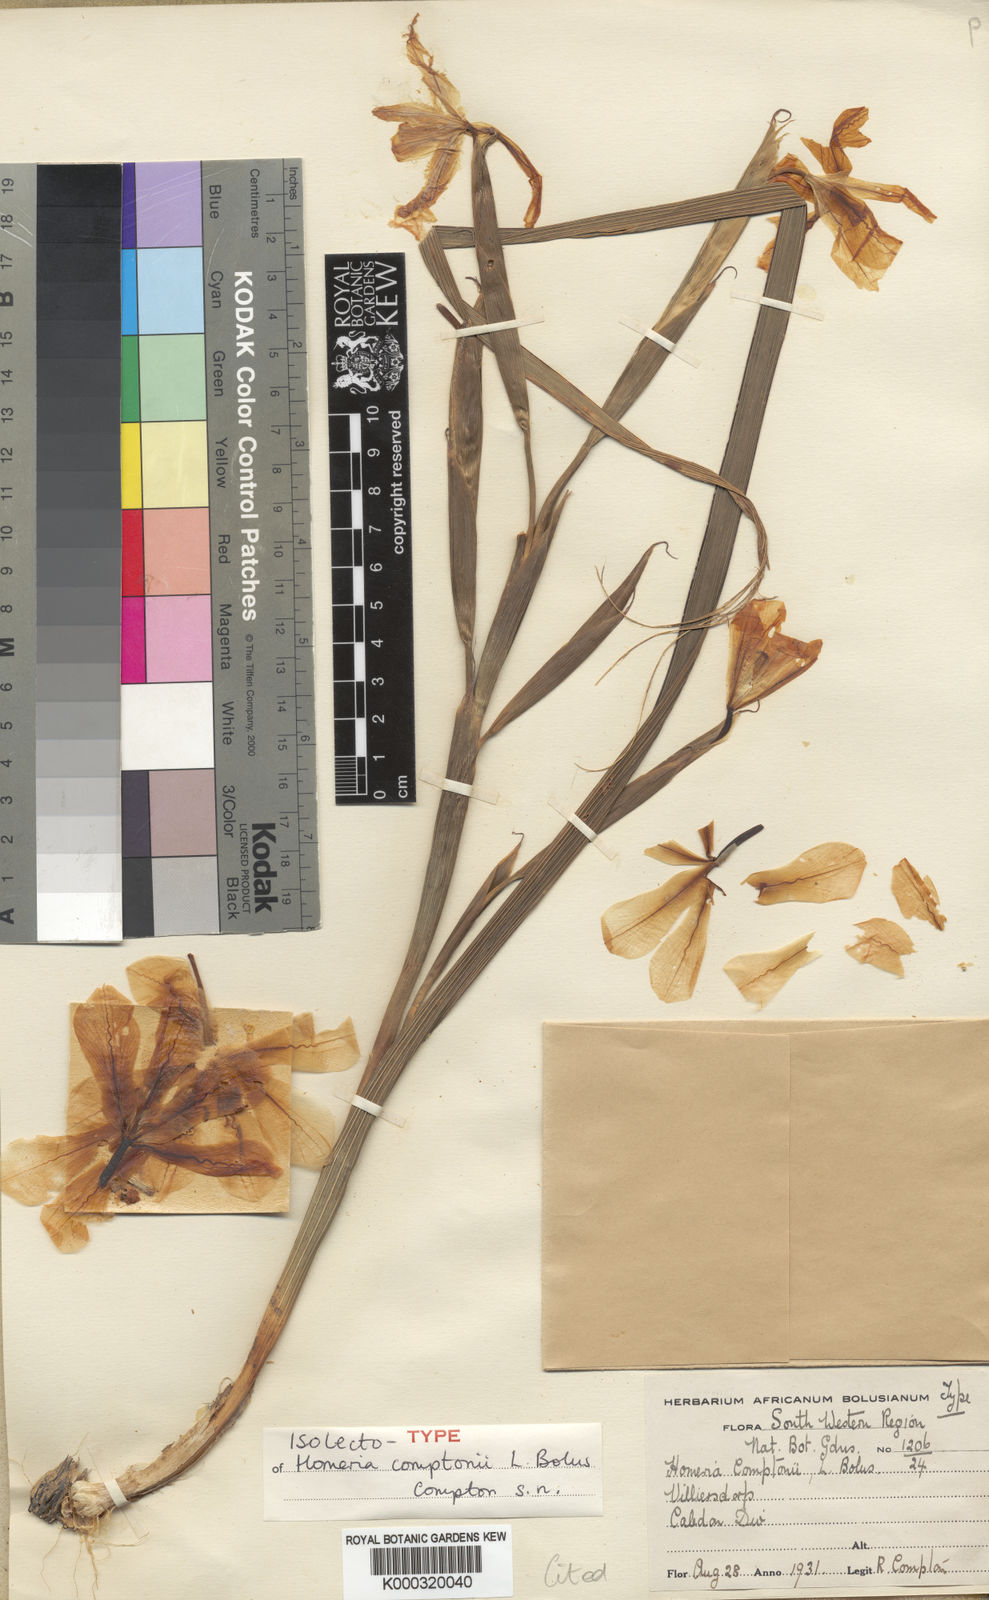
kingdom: Plantae
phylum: Tracheophyta
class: Liliopsida
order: Asparagales
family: Iridaceae
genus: Moraea
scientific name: Moraea comptonii
